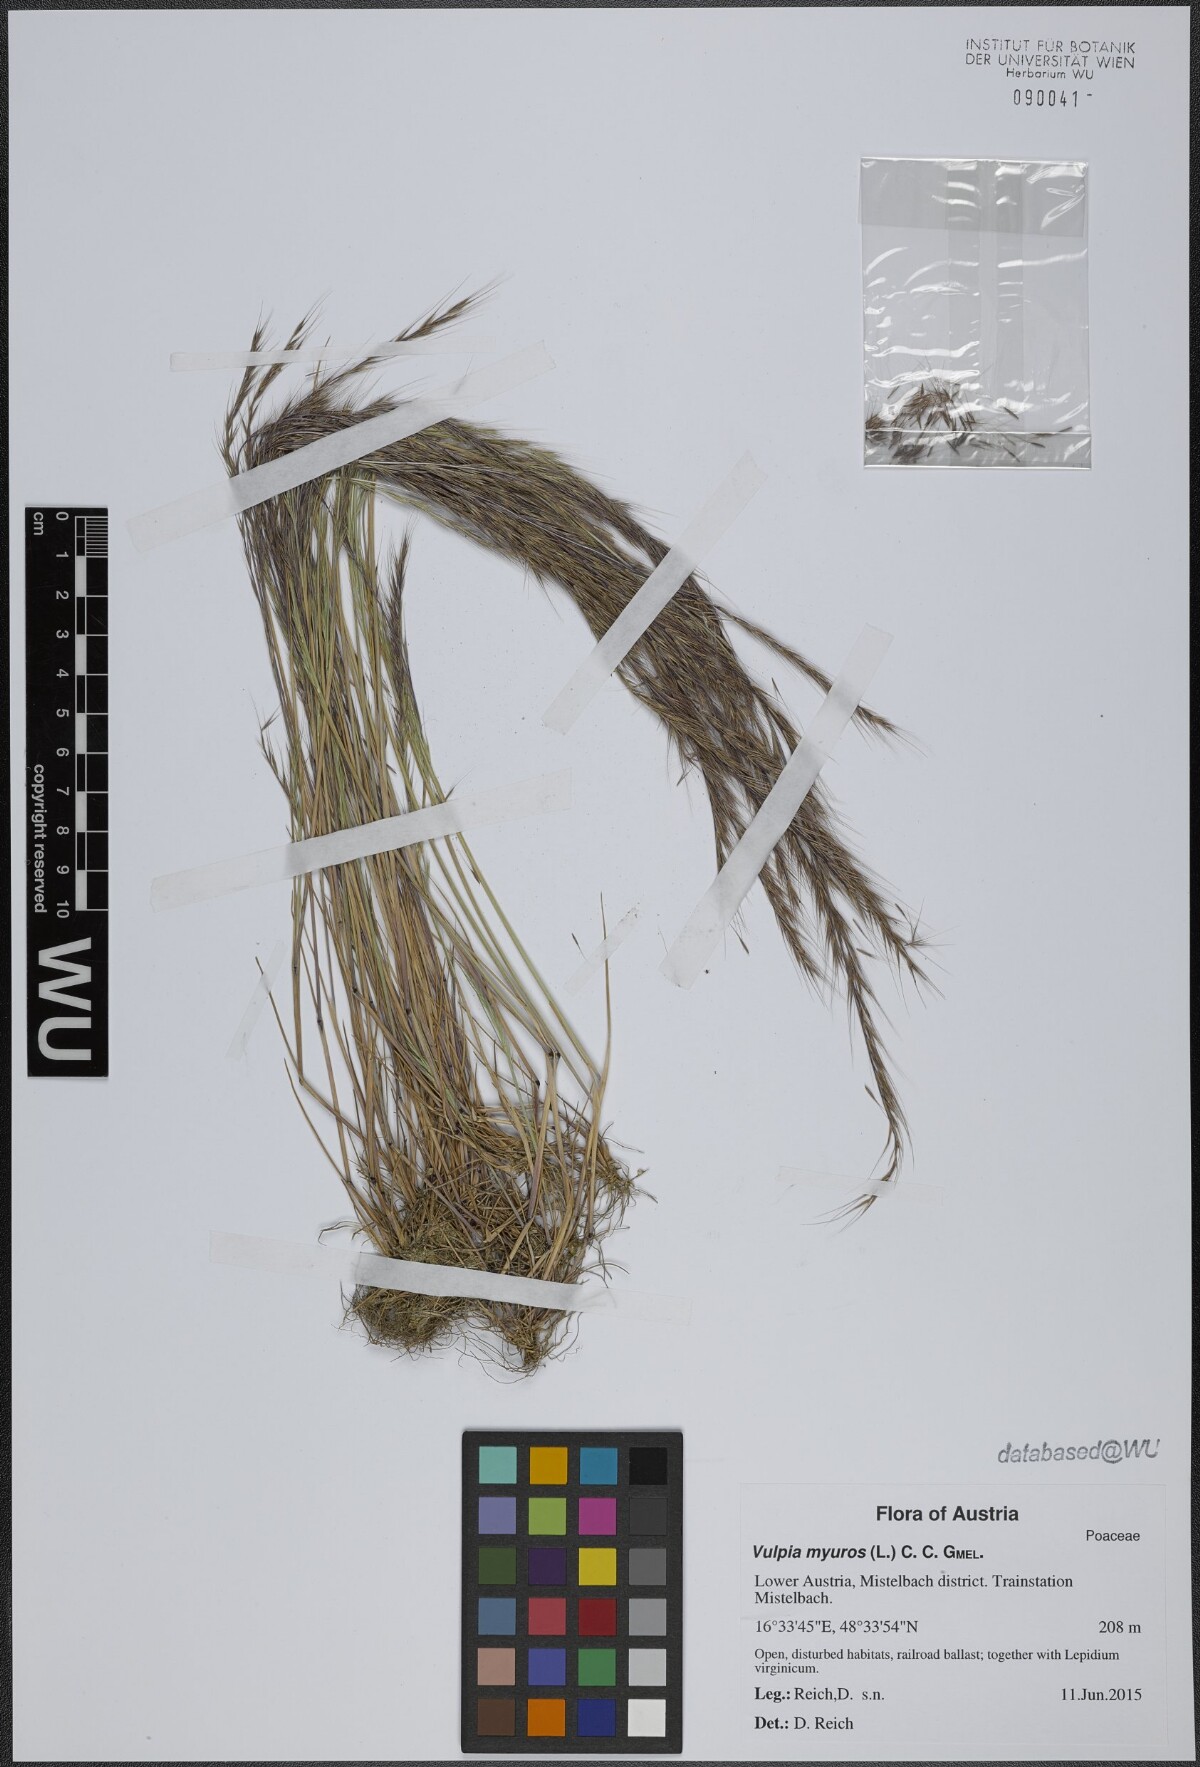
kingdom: Plantae
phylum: Tracheophyta
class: Liliopsida
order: Poales
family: Poaceae
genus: Festuca
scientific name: Festuca myuros
